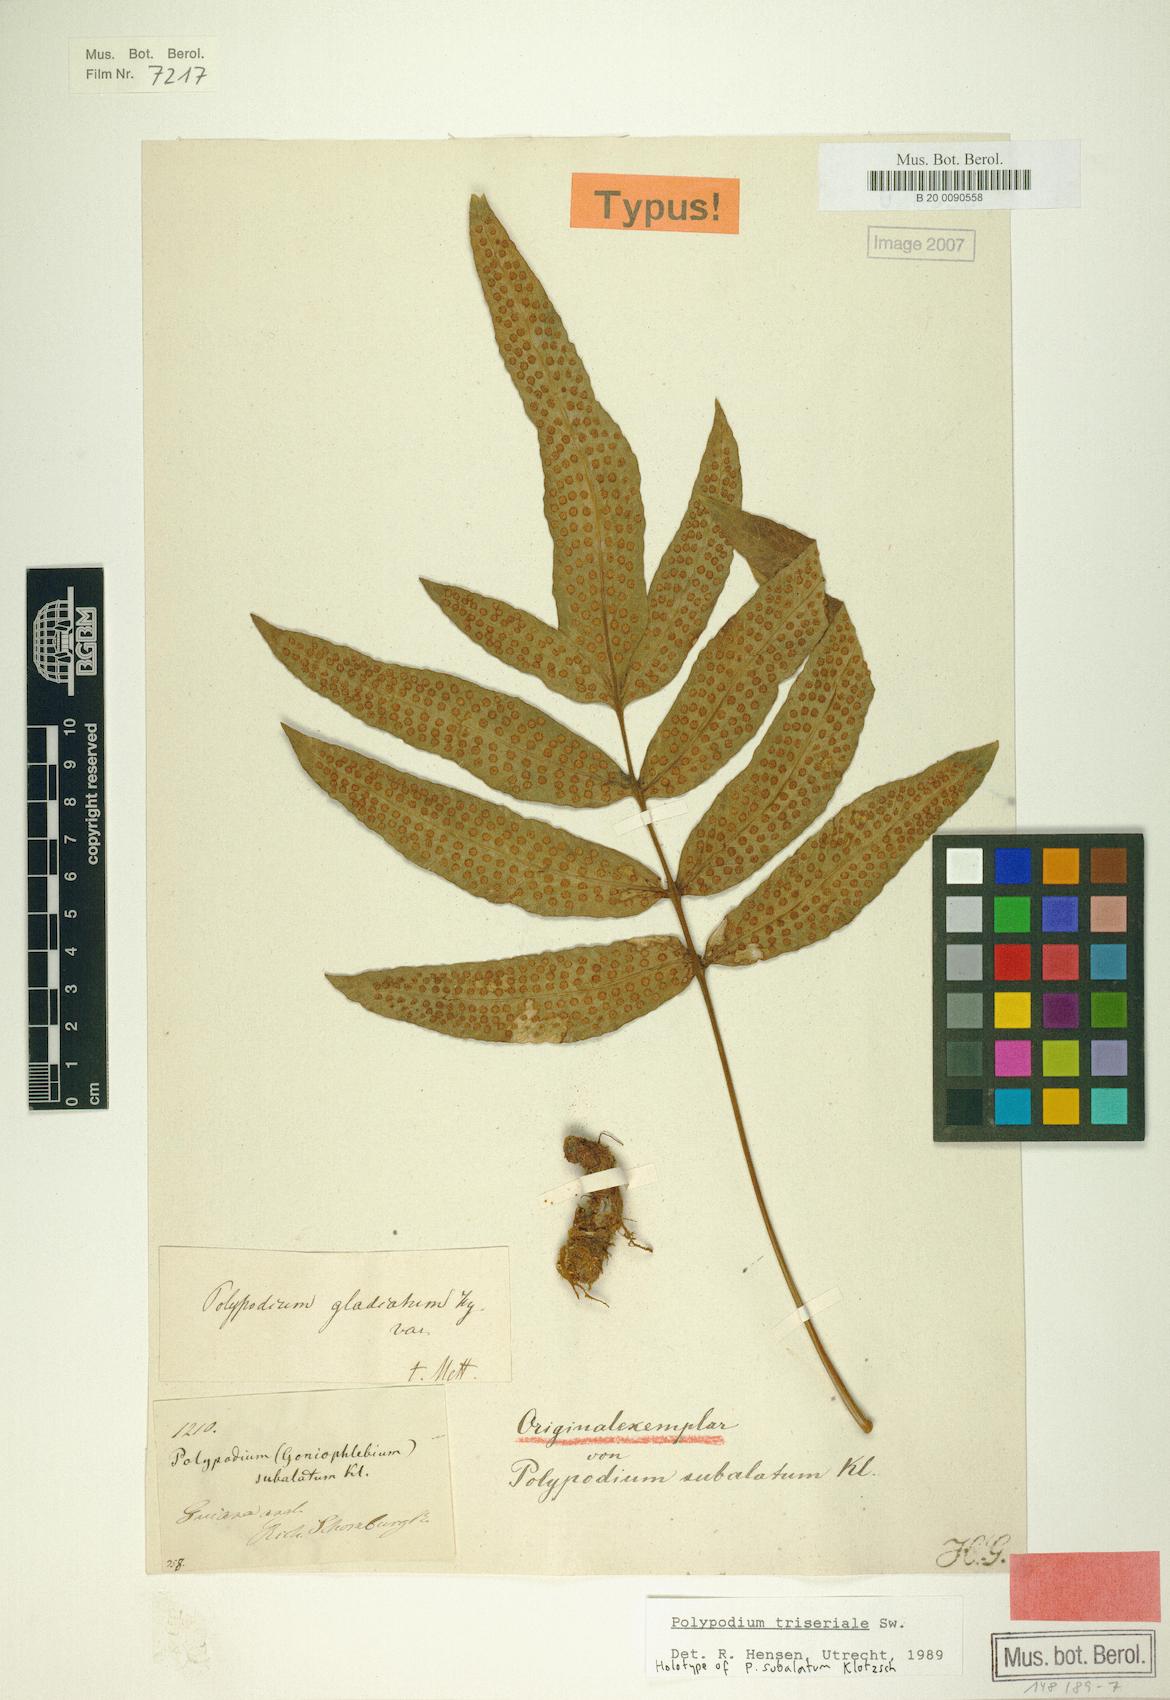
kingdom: Plantae
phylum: Tracheophyta
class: Polypodiopsida
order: Polypodiales
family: Polypodiaceae
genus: Serpocaulon
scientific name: Serpocaulon triseriale
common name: Angle-vein fern
